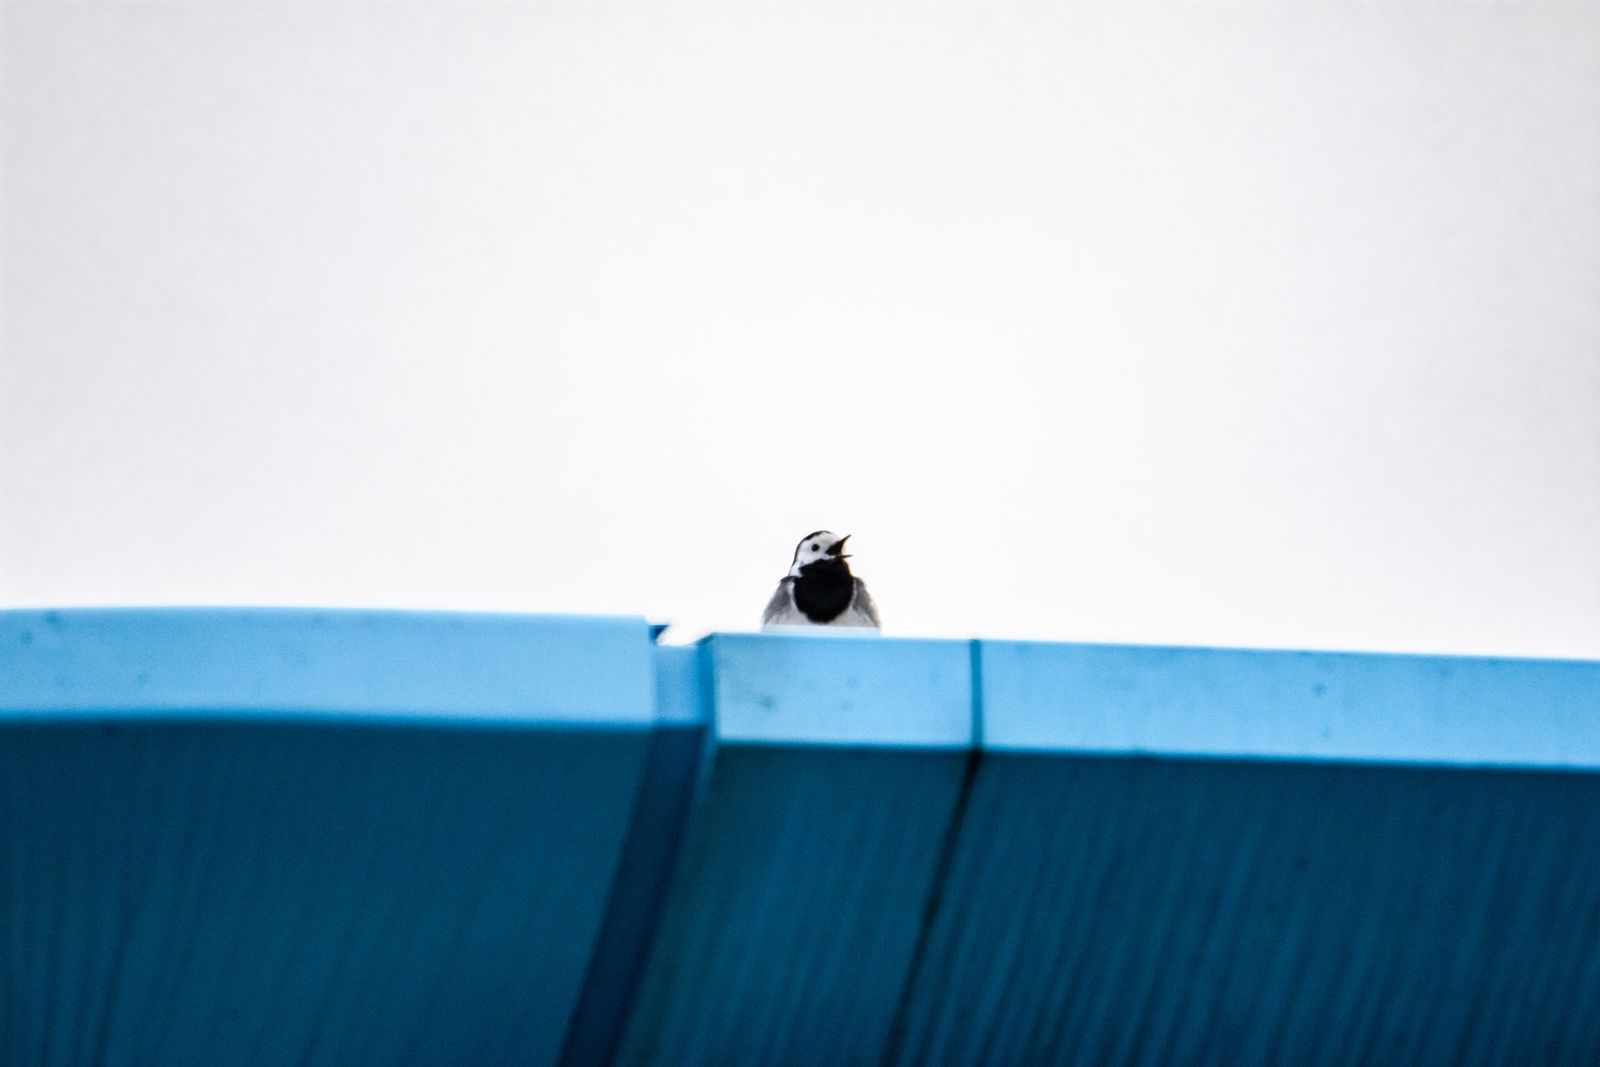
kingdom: Animalia
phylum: Chordata
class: Aves
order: Passeriformes
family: Motacillidae
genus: Motacilla
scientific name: Motacilla alba
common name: White wagtail
